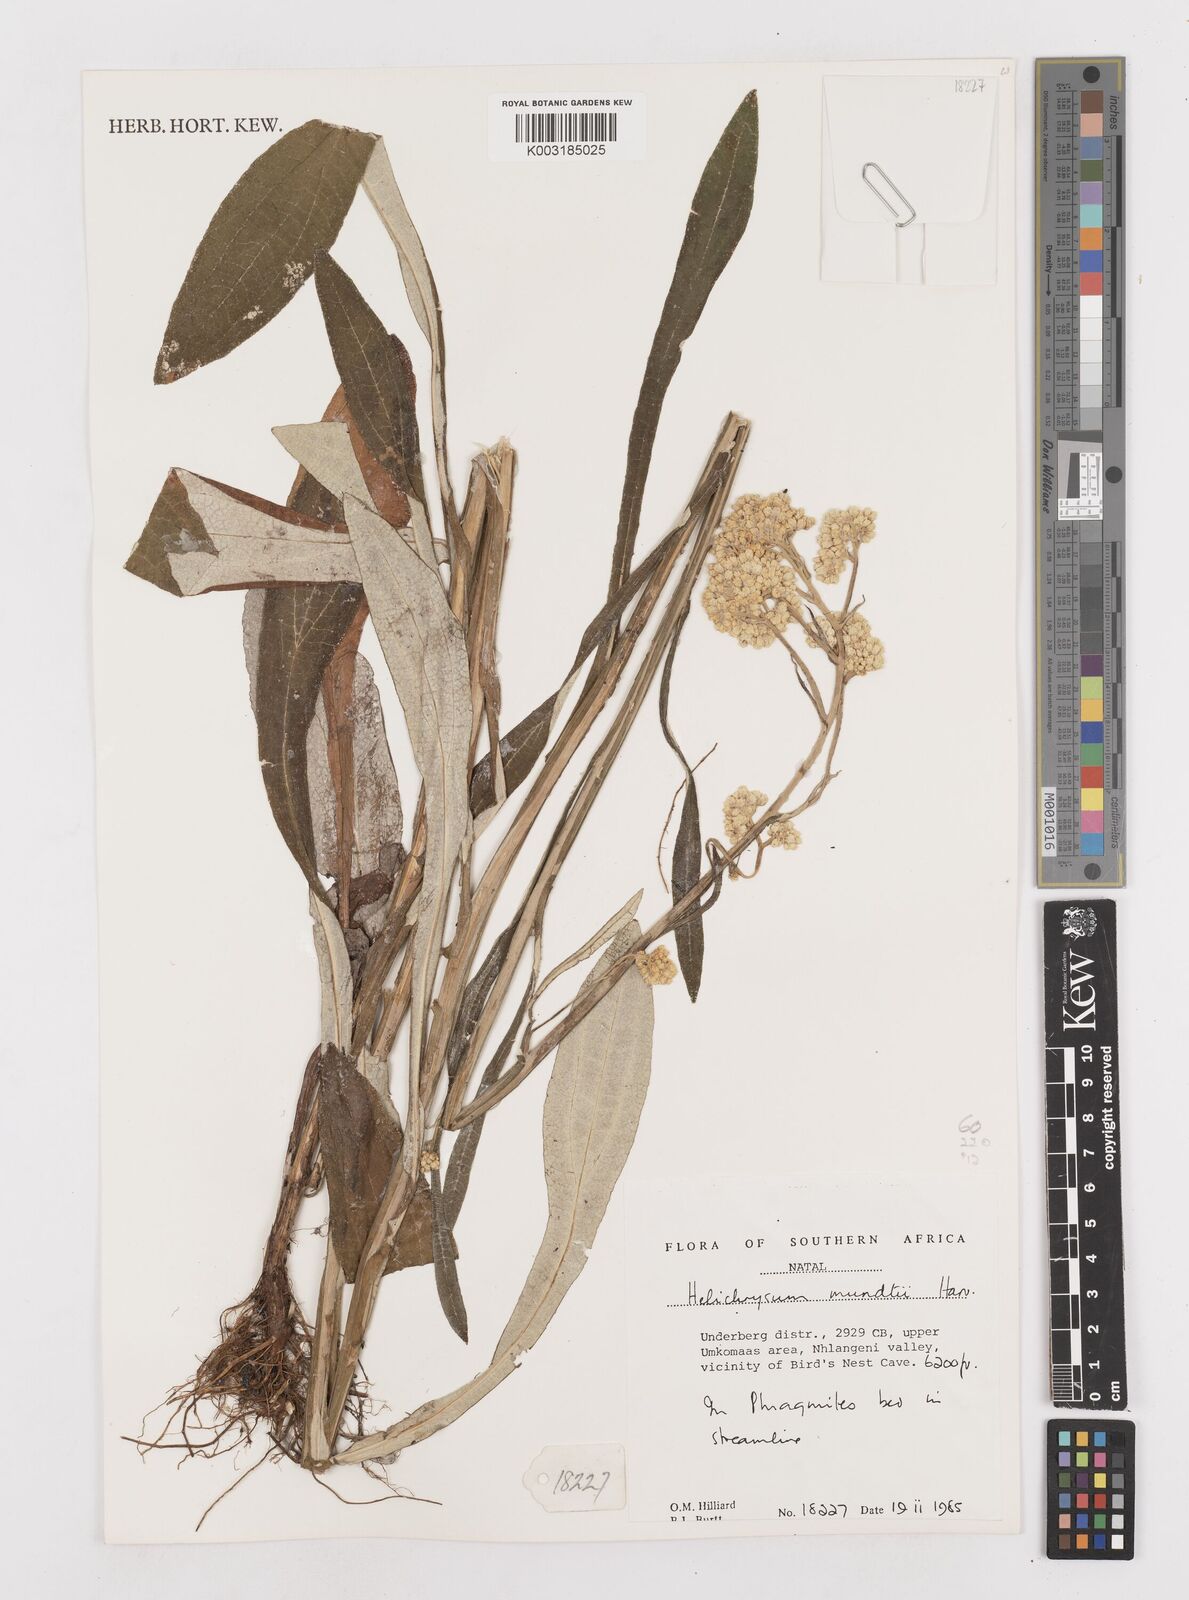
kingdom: Plantae
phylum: Tracheophyta
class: Magnoliopsida
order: Asterales
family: Asteraceae
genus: Helichrysum
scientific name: Helichrysum mundii
